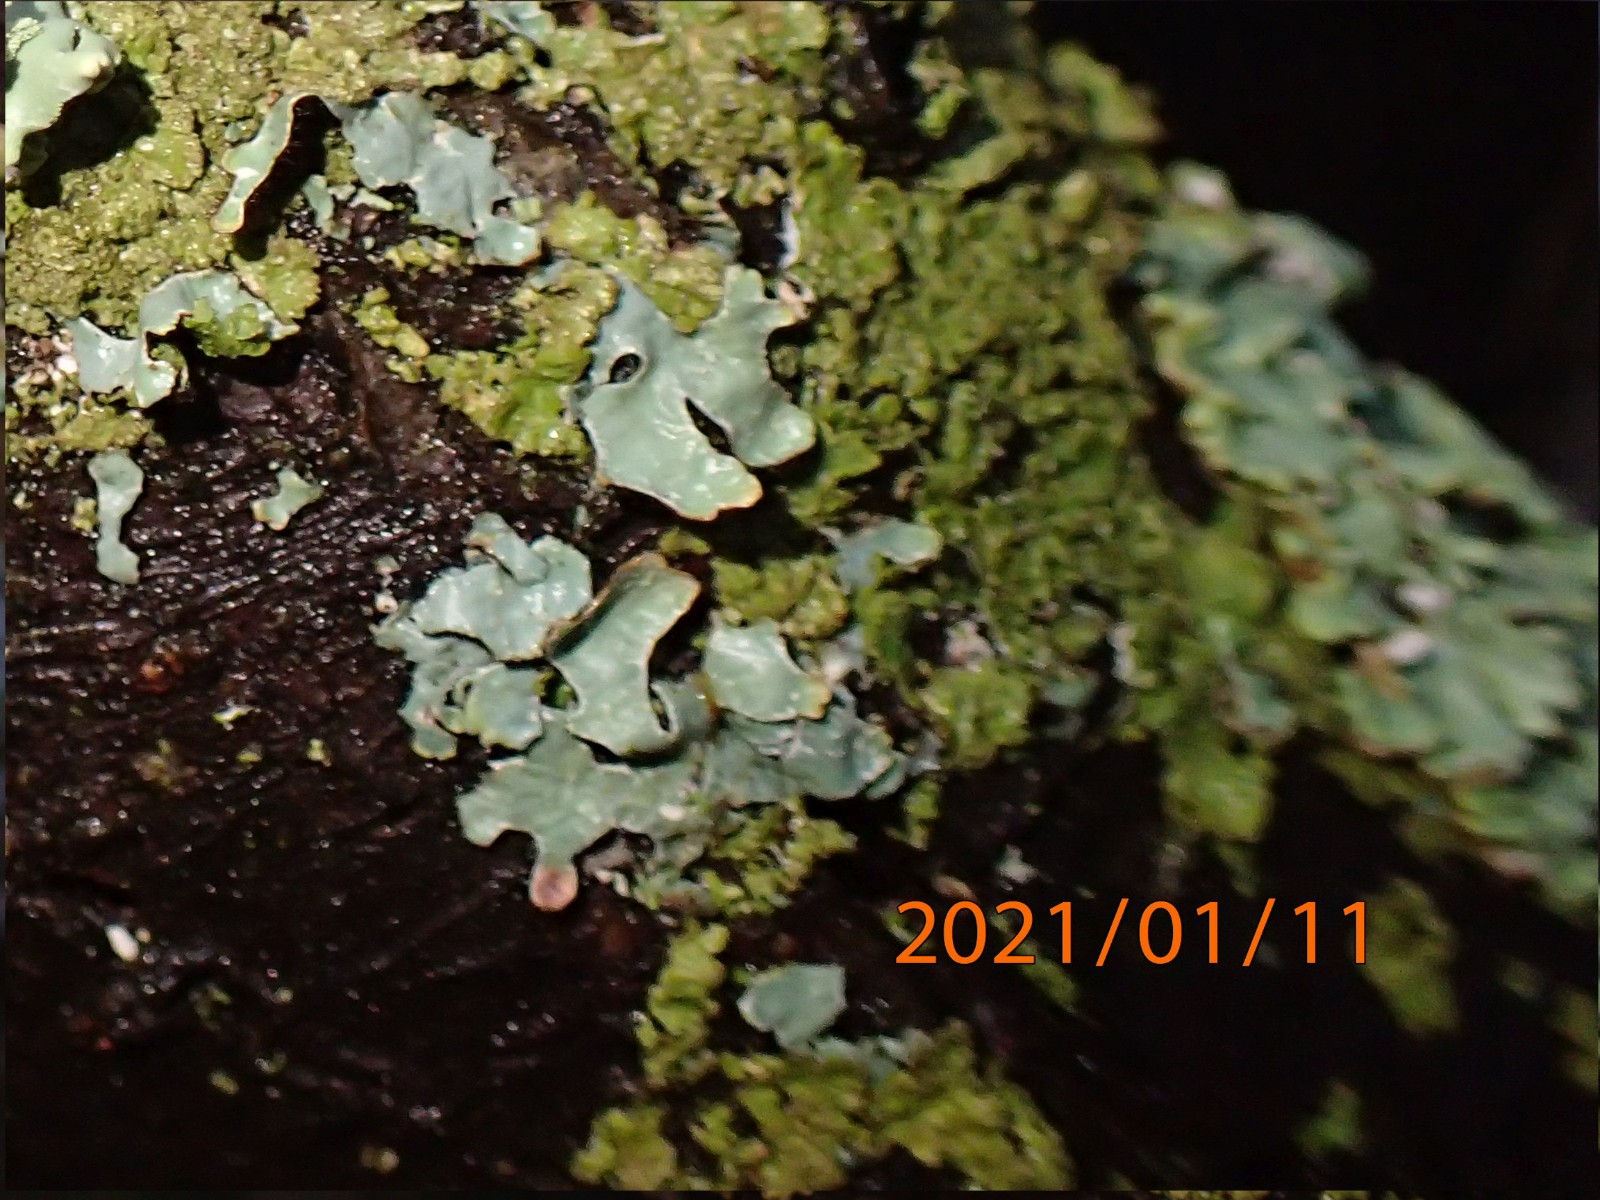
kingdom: Fungi
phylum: Ascomycota
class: Lecanoromycetes
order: Lecanorales
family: Parmeliaceae
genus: Parmelia
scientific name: Parmelia sulcata
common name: rynket skållav
